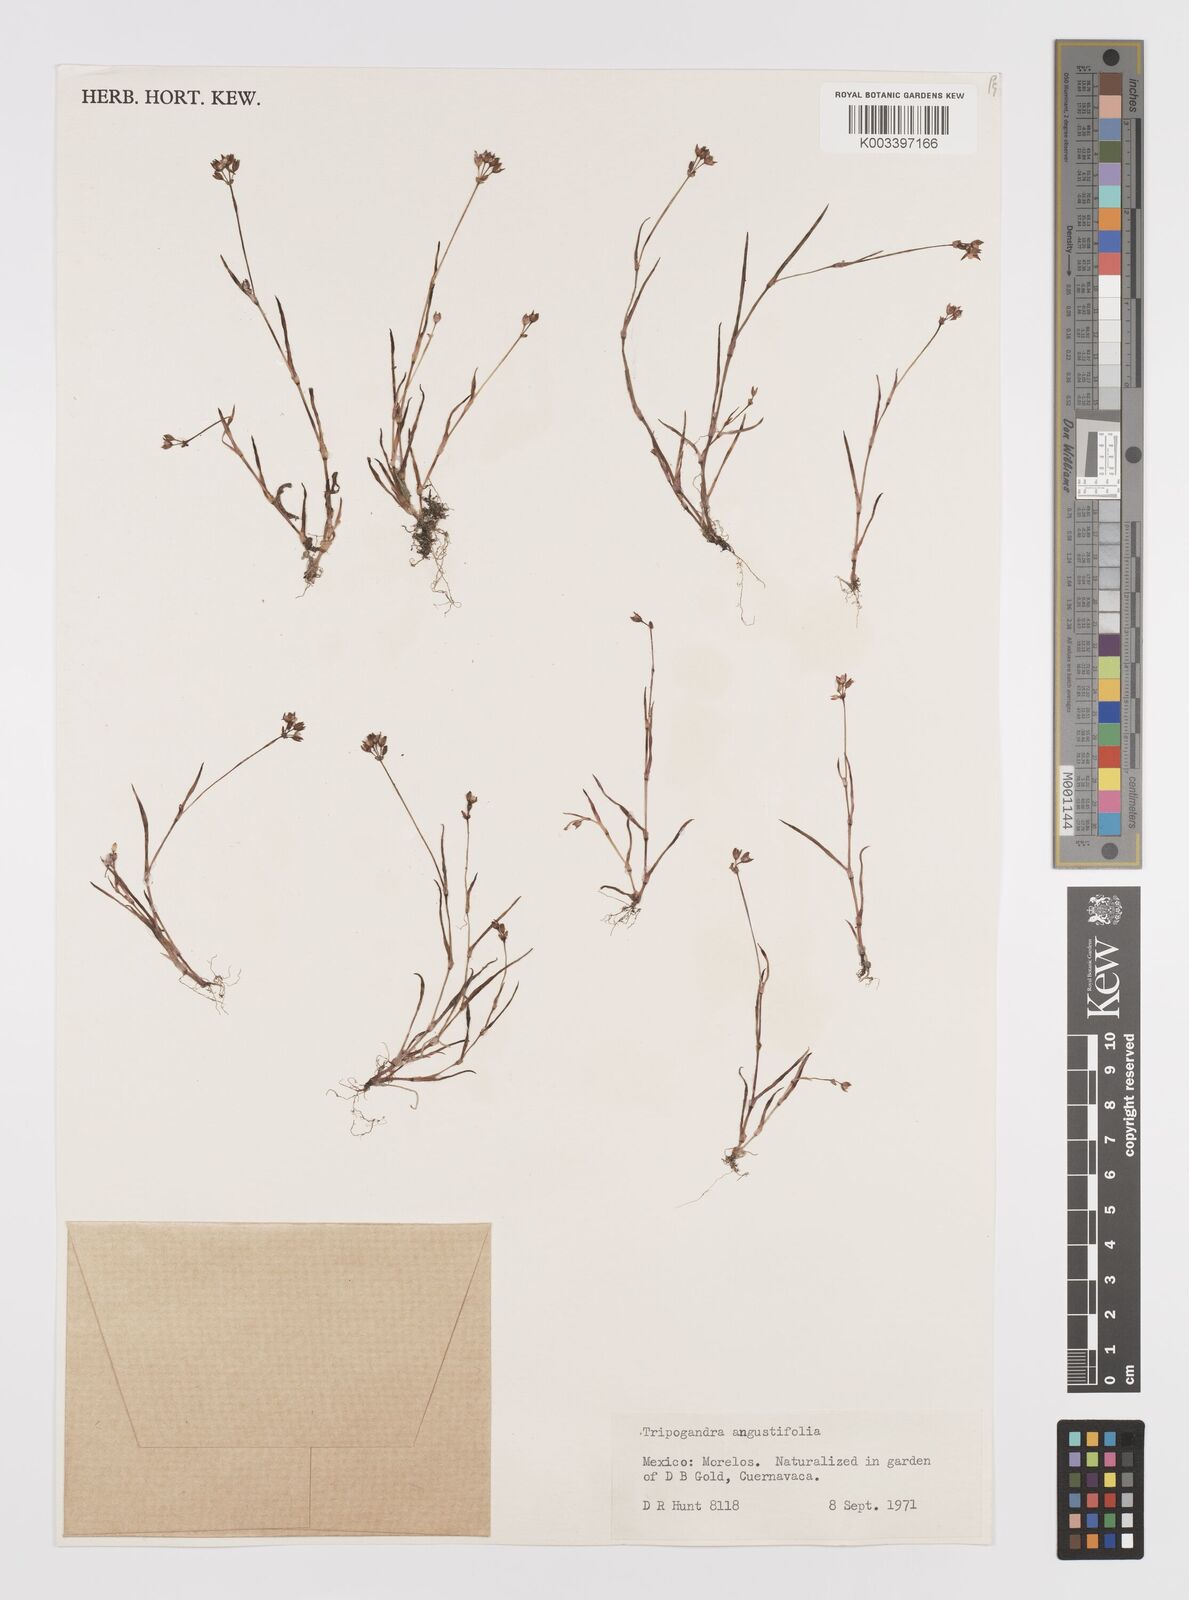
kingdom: Plantae
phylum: Tracheophyta
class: Liliopsida
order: Commelinales
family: Commelinaceae
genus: Callisia
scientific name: Callisia angustifolia
